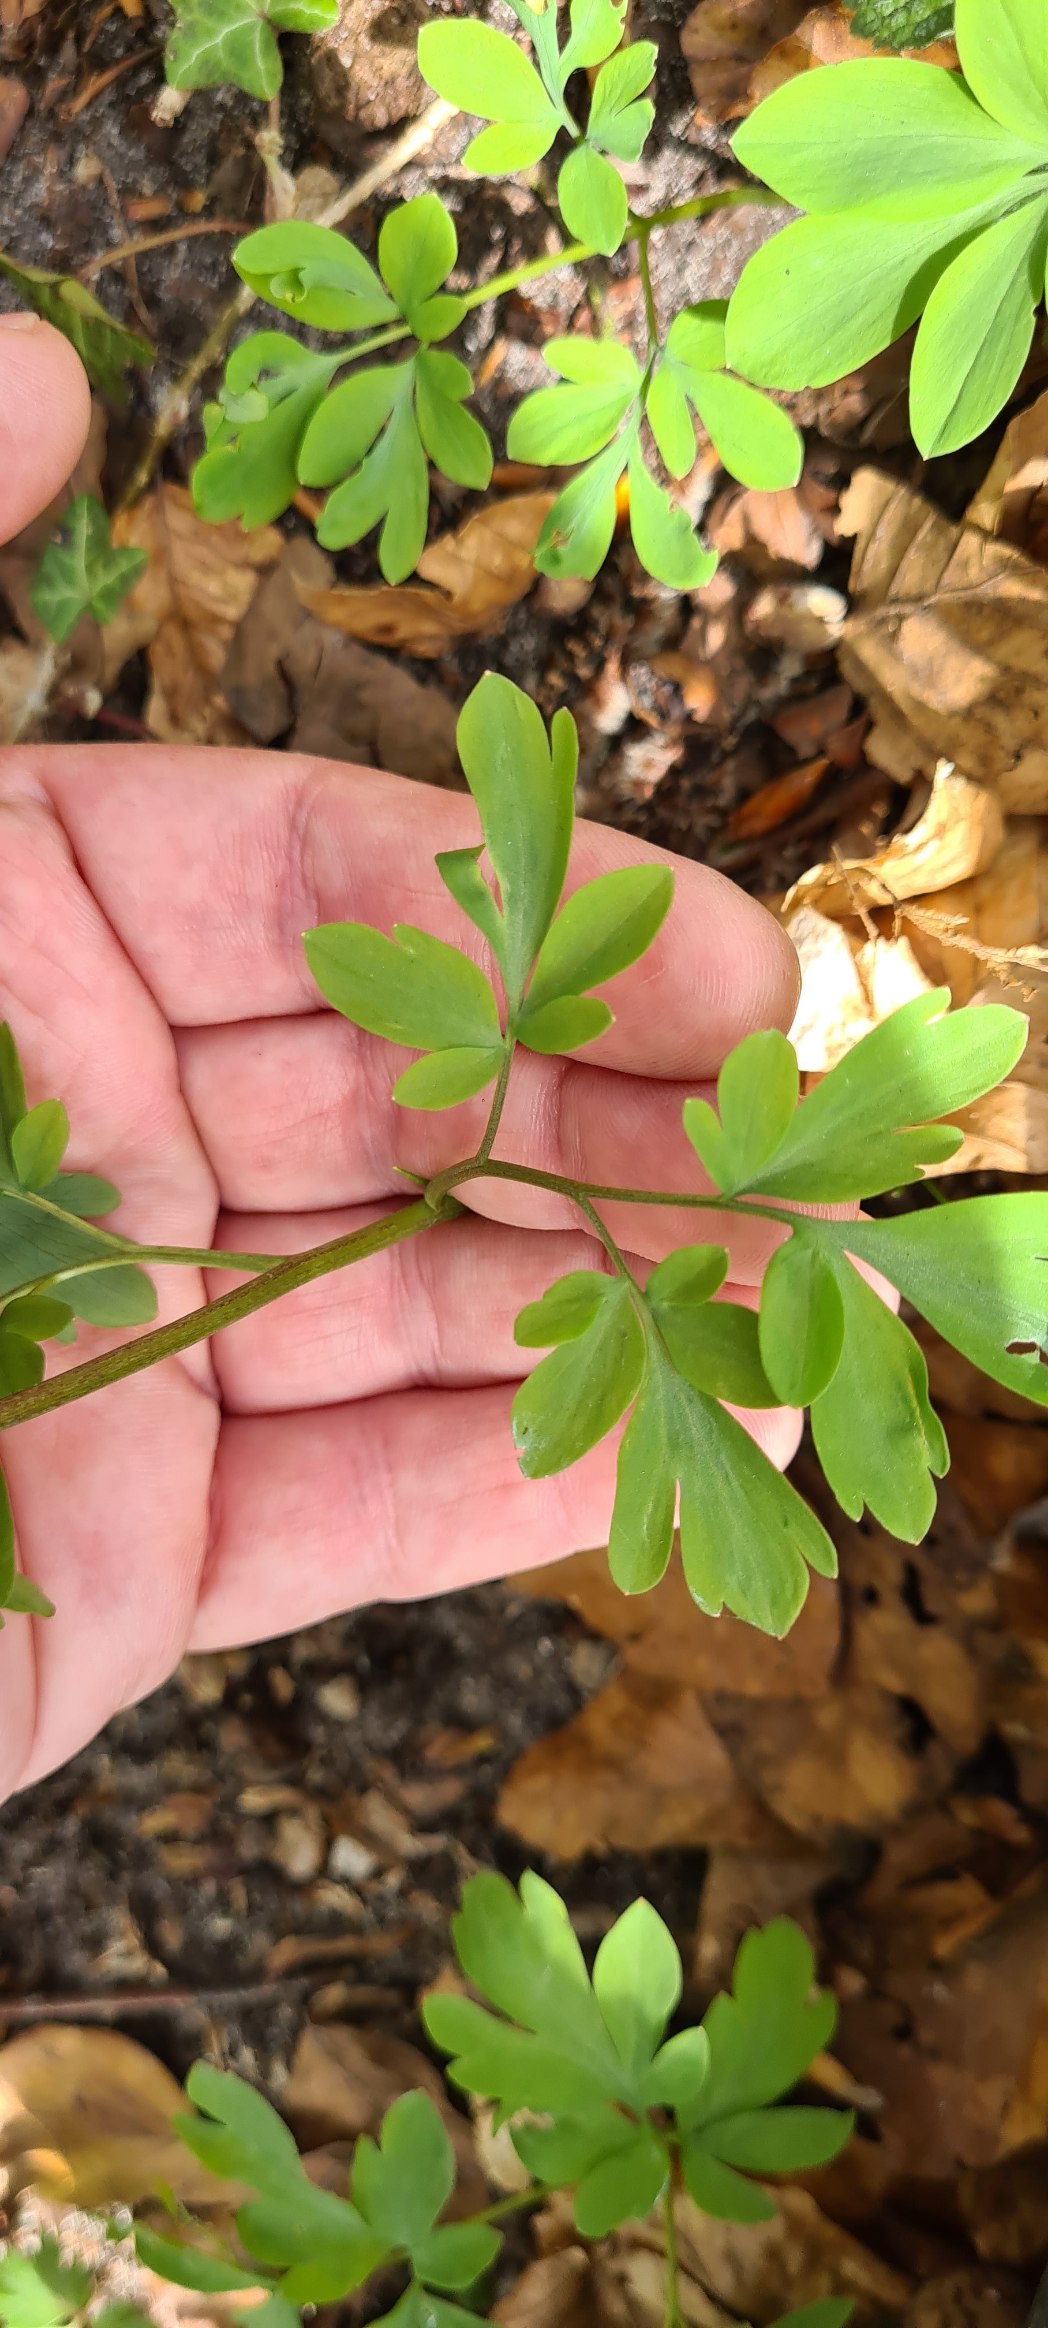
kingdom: Plantae
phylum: Tracheophyta
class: Magnoliopsida
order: Ranunculales
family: Papaveraceae
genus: Corydalis
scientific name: Corydalis cava
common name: Hulrodet lærkespore
